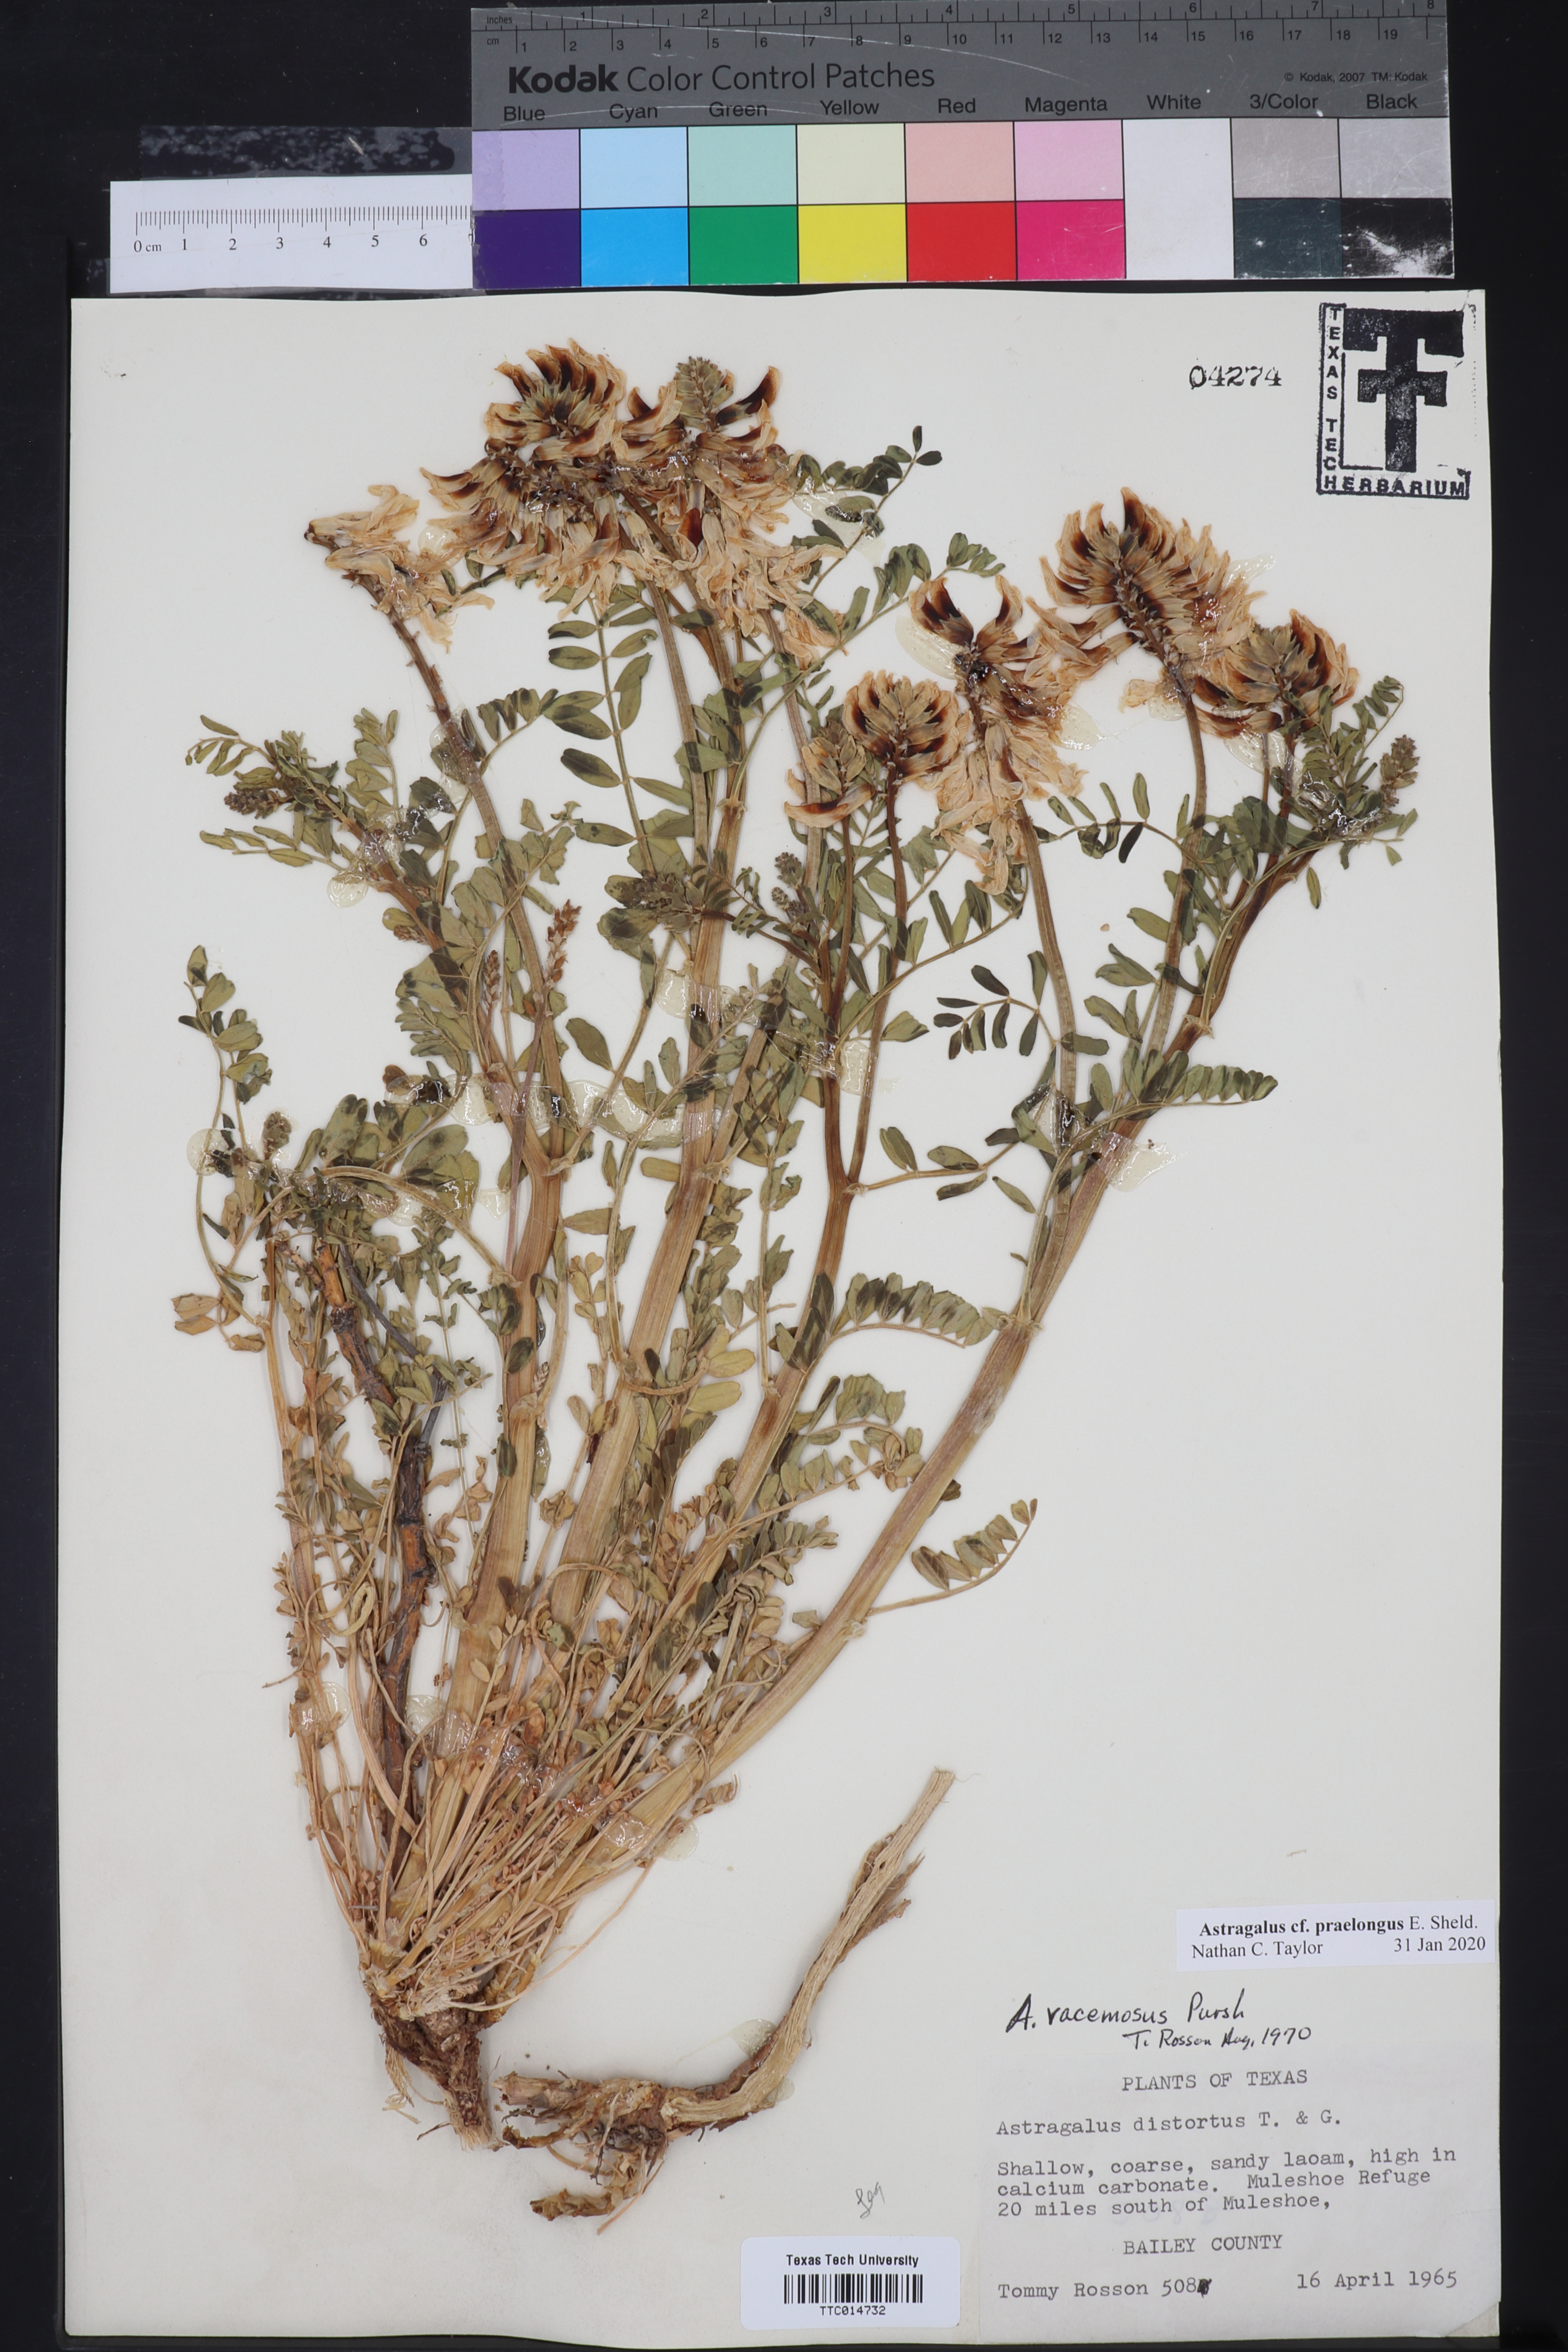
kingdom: Plantae
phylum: Tracheophyta
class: Magnoliopsida
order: Fabales
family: Fabaceae
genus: Astragalus
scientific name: Astragalus praelongus
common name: Stinking milk-vetch
